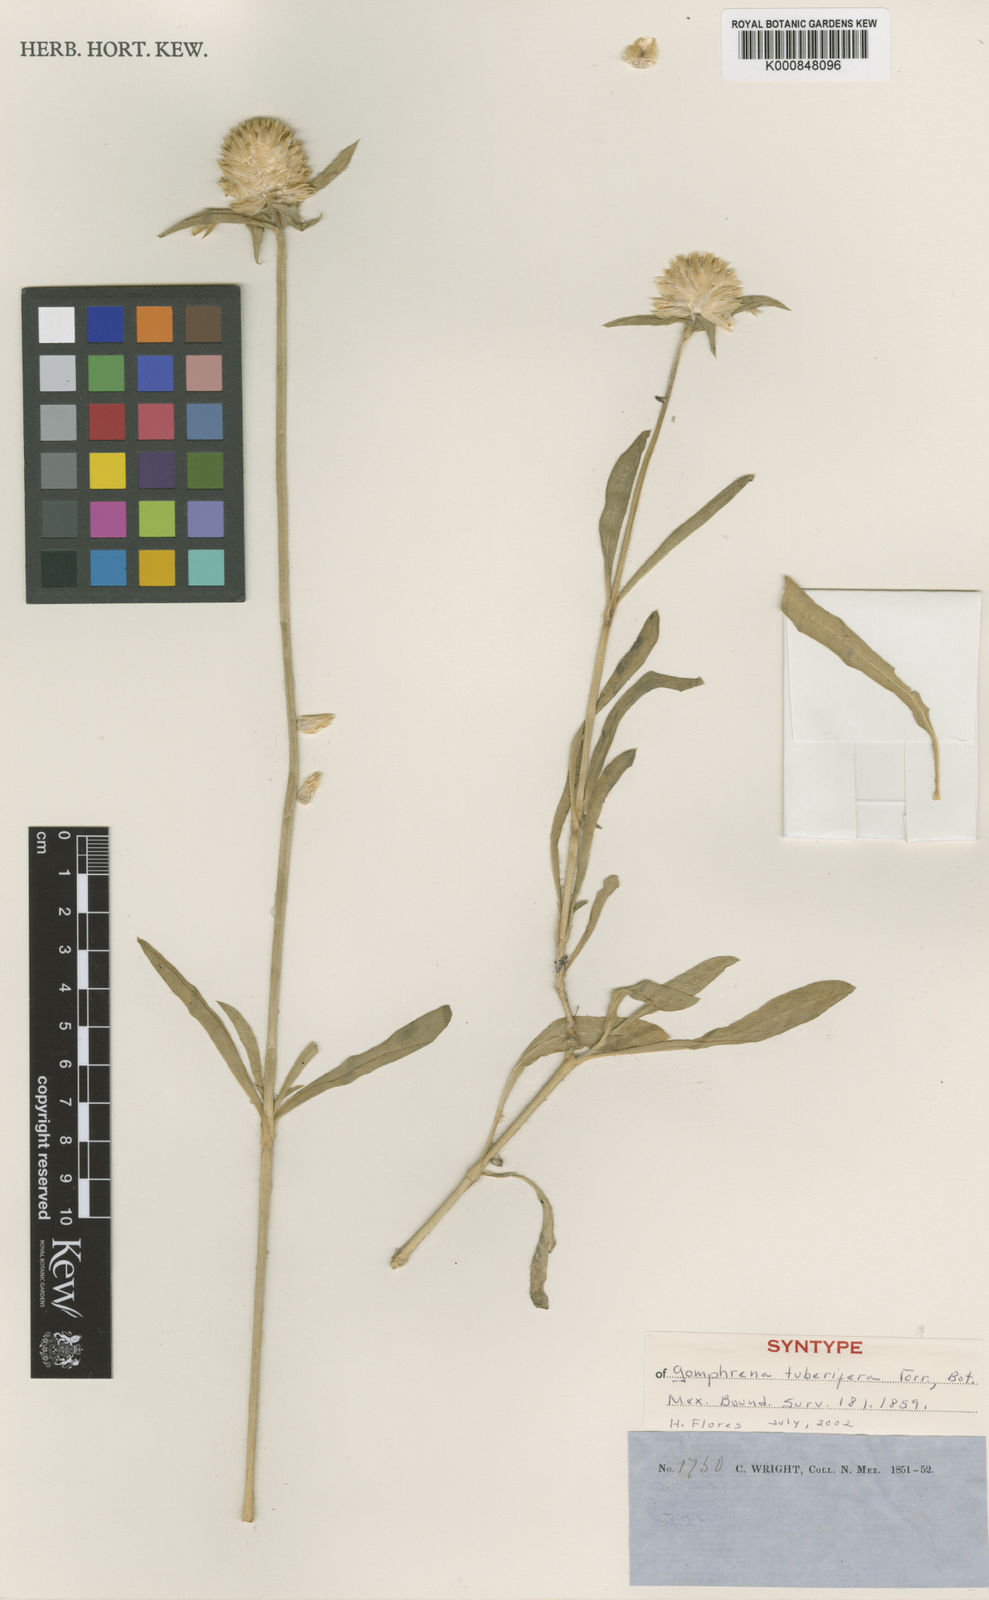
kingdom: Plantae
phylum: Tracheophyta
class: Magnoliopsida
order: Caryophyllales
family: Amaranthaceae
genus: Gomphrena
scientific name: Gomphrena haageana
